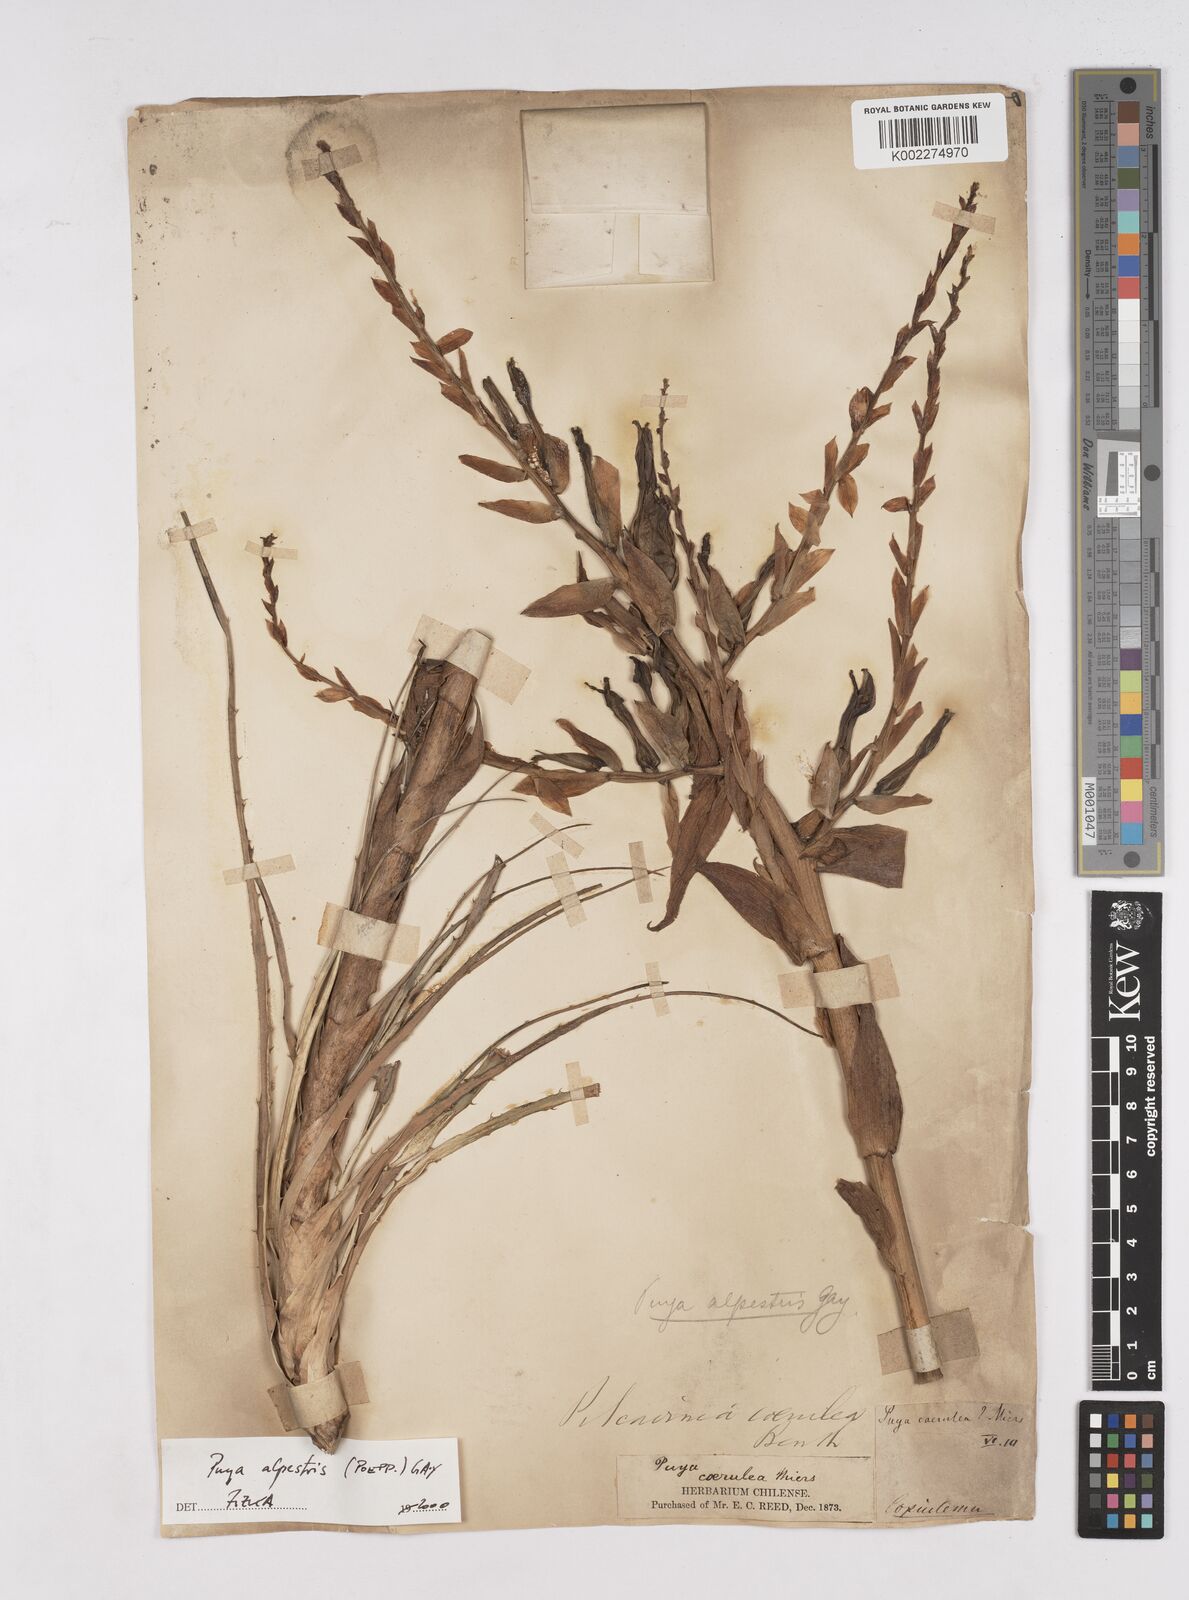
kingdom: Plantae
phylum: Tracheophyta
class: Liliopsida
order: Poales
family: Bromeliaceae
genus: Puya
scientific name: Puya alpestris
